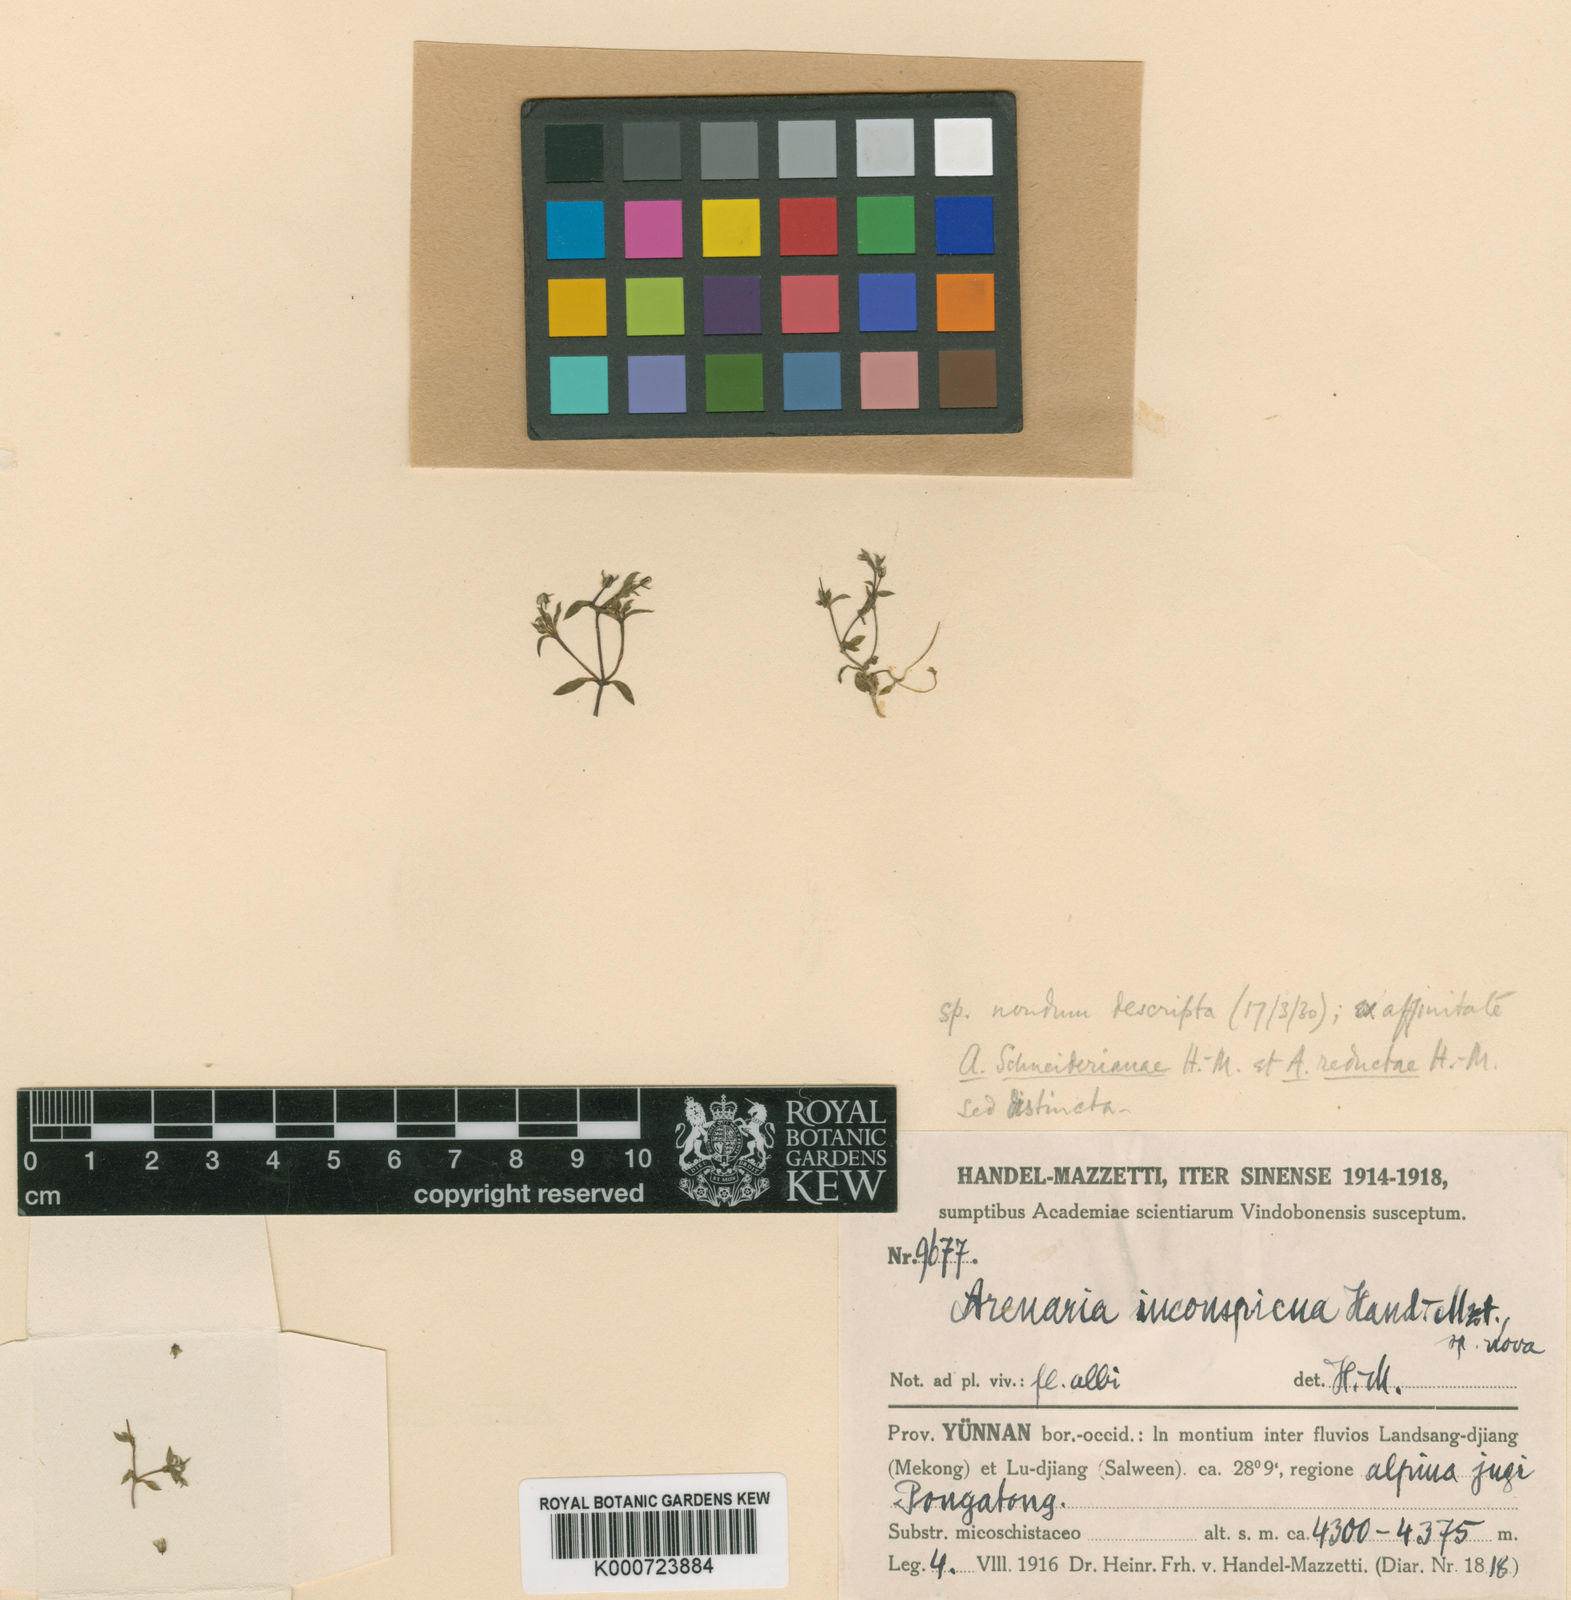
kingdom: Plantae
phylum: Tracheophyta
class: Magnoliopsida
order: Caryophyllales
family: Caryophyllaceae
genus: Odontostemma
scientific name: Odontostemma inconspicuum
